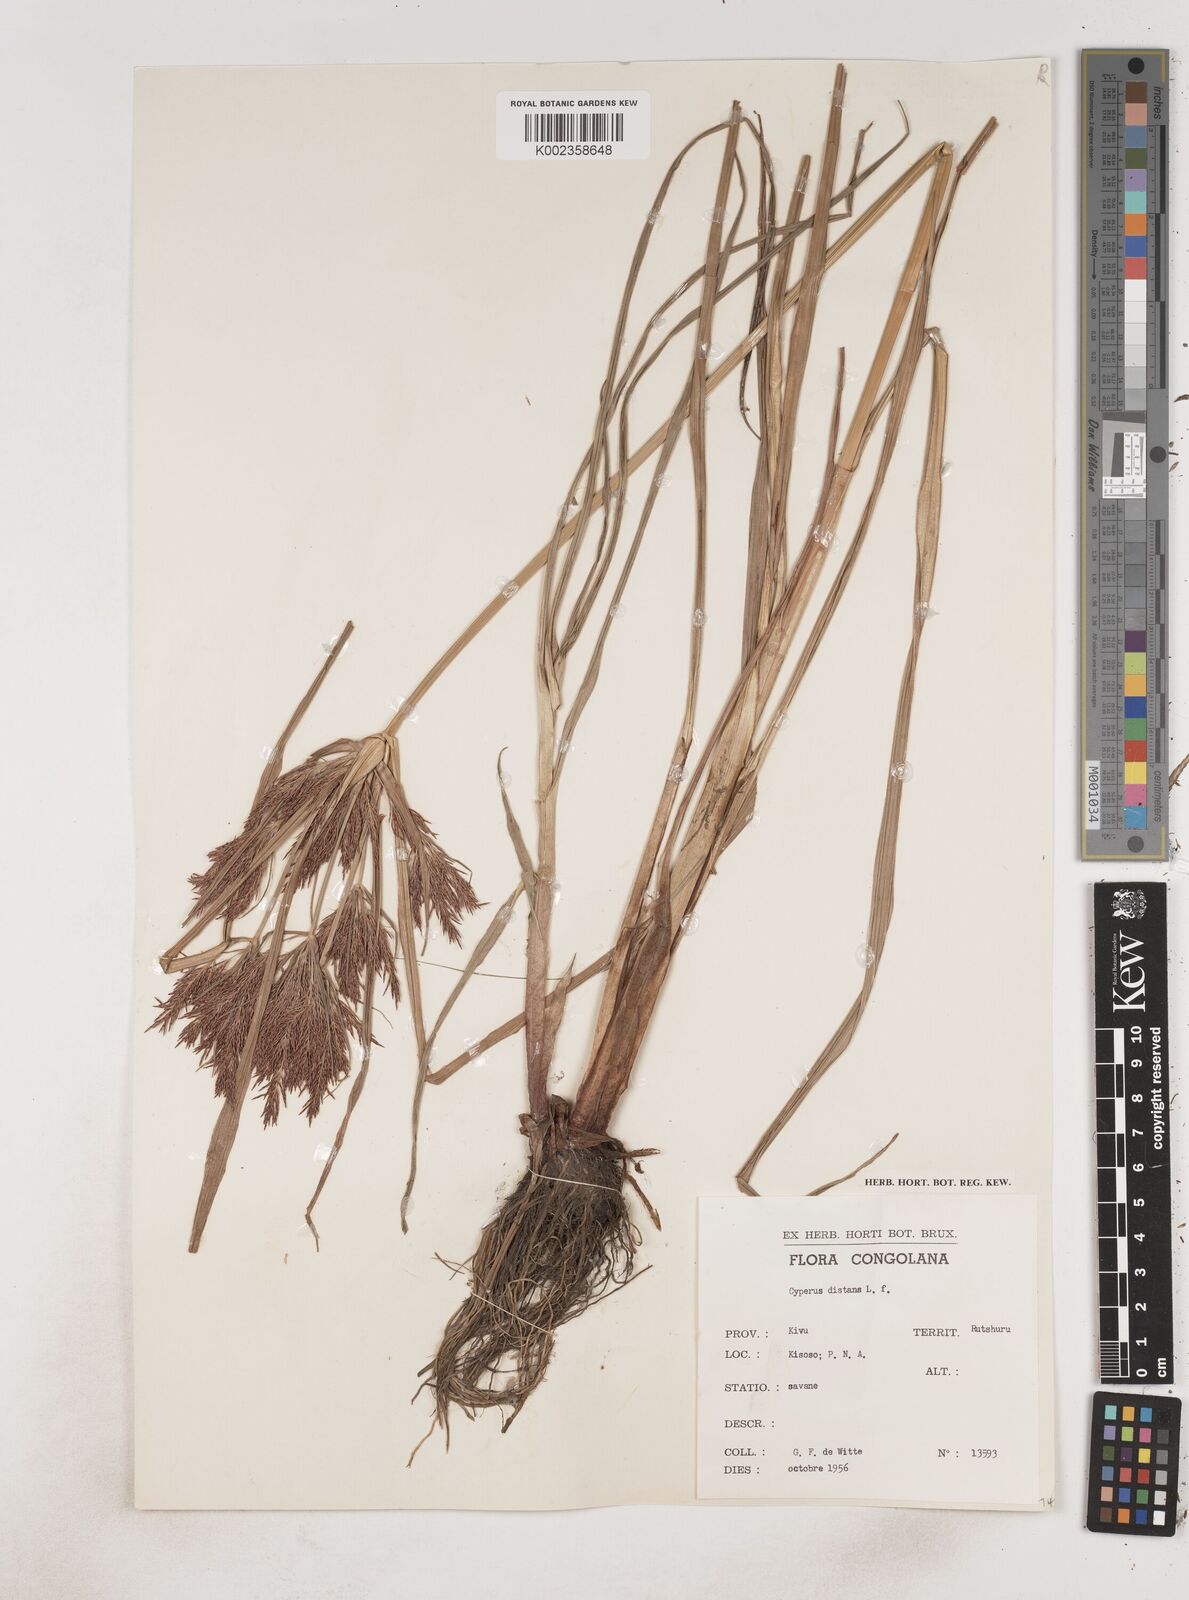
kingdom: Plantae
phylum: Tracheophyta
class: Liliopsida
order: Poales
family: Cyperaceae
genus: Cyperus
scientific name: Cyperus distans
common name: Slender cyperus
